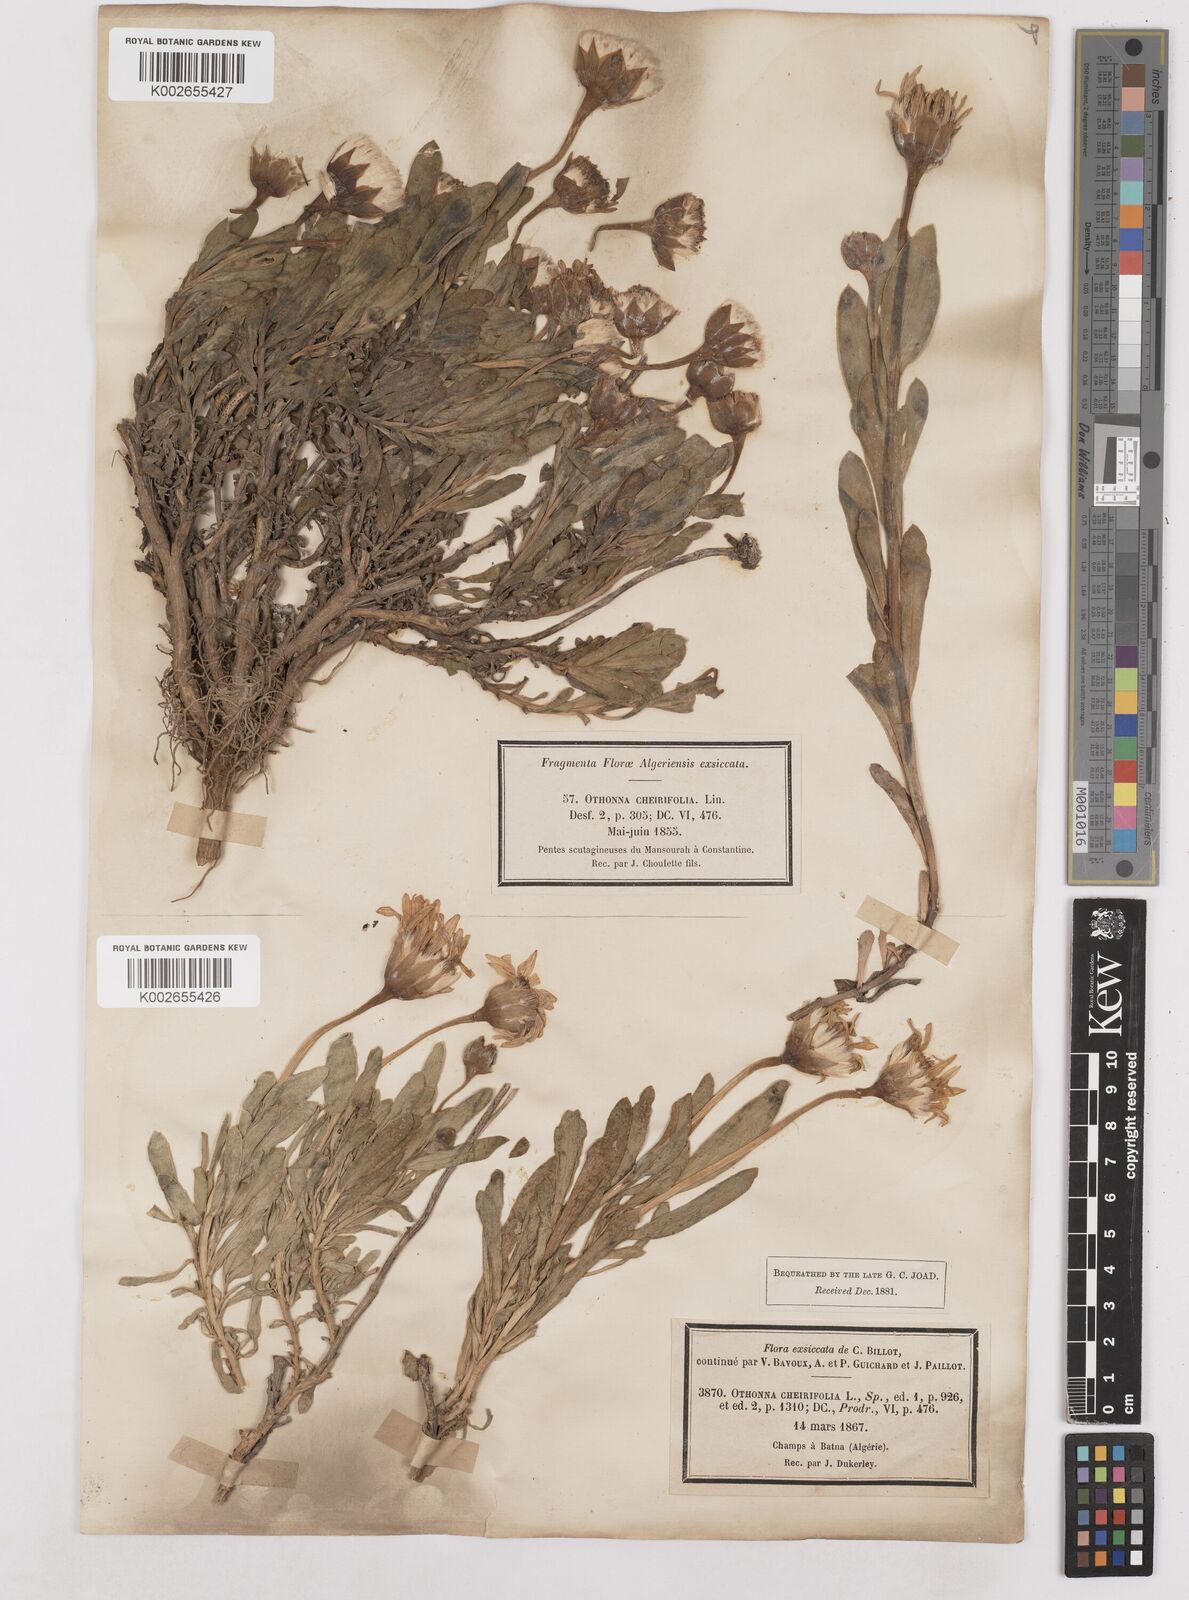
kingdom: Plantae
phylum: Tracheophyta
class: Magnoliopsida
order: Asterales
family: Asteraceae
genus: Hertia
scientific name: Hertia cheirifolia
